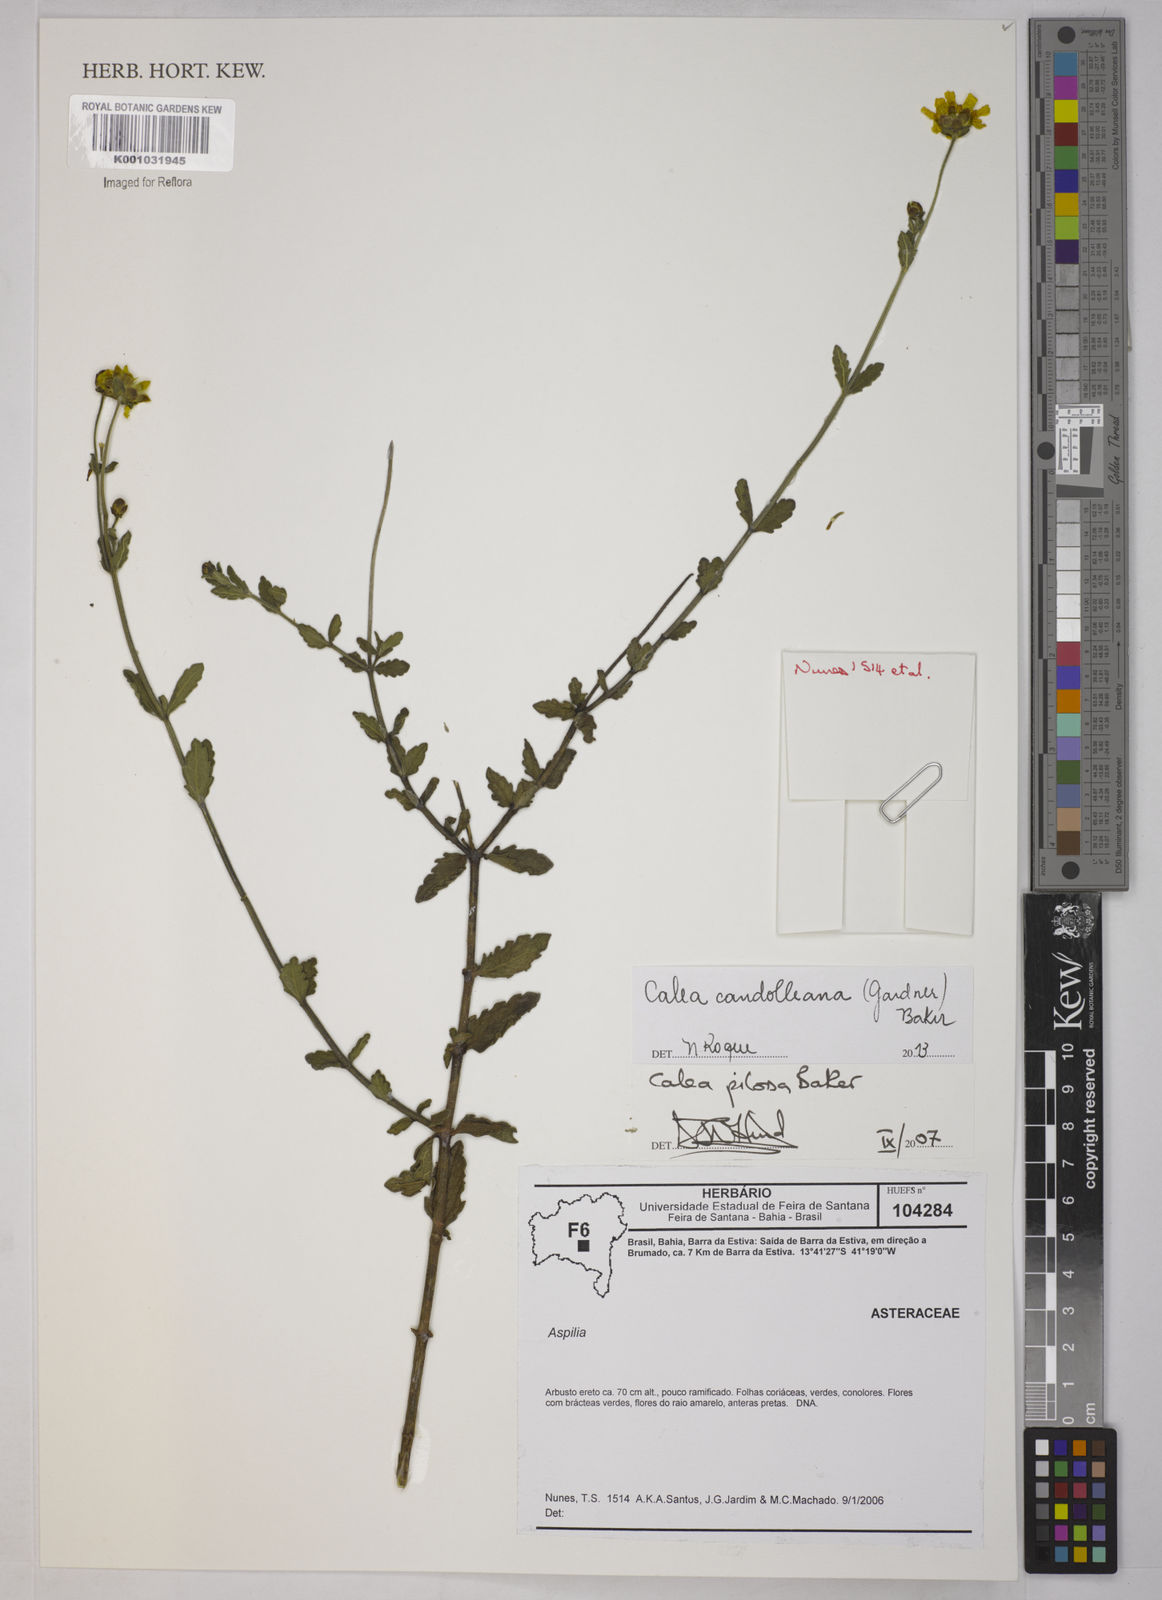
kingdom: Plantae
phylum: Tracheophyta
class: Magnoliopsida
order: Asterales
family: Asteraceae
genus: Calea
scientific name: Calea candolleana
